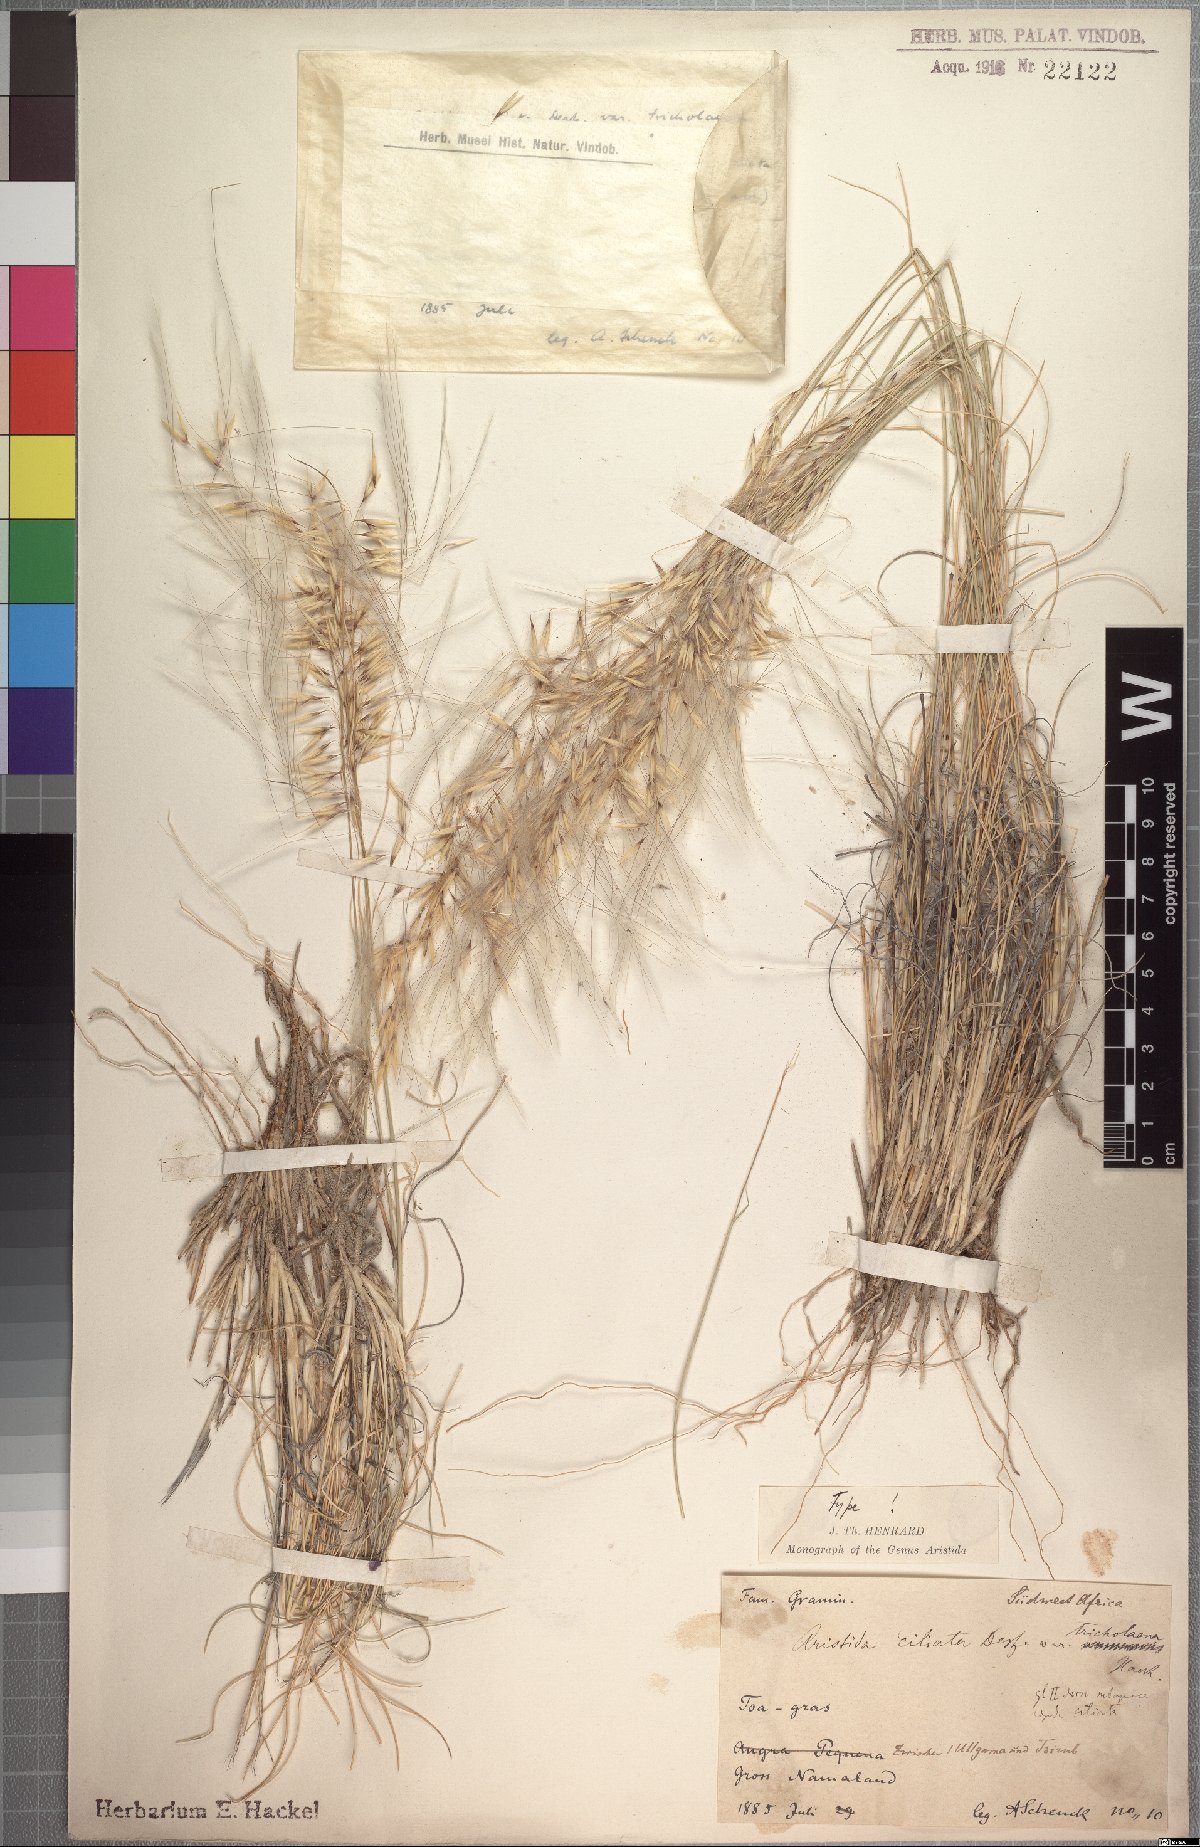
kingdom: Plantae
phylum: Tracheophyta
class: Liliopsida
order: Poales
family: Poaceae
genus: Stipagrostis
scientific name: Stipagrostis ciliata
